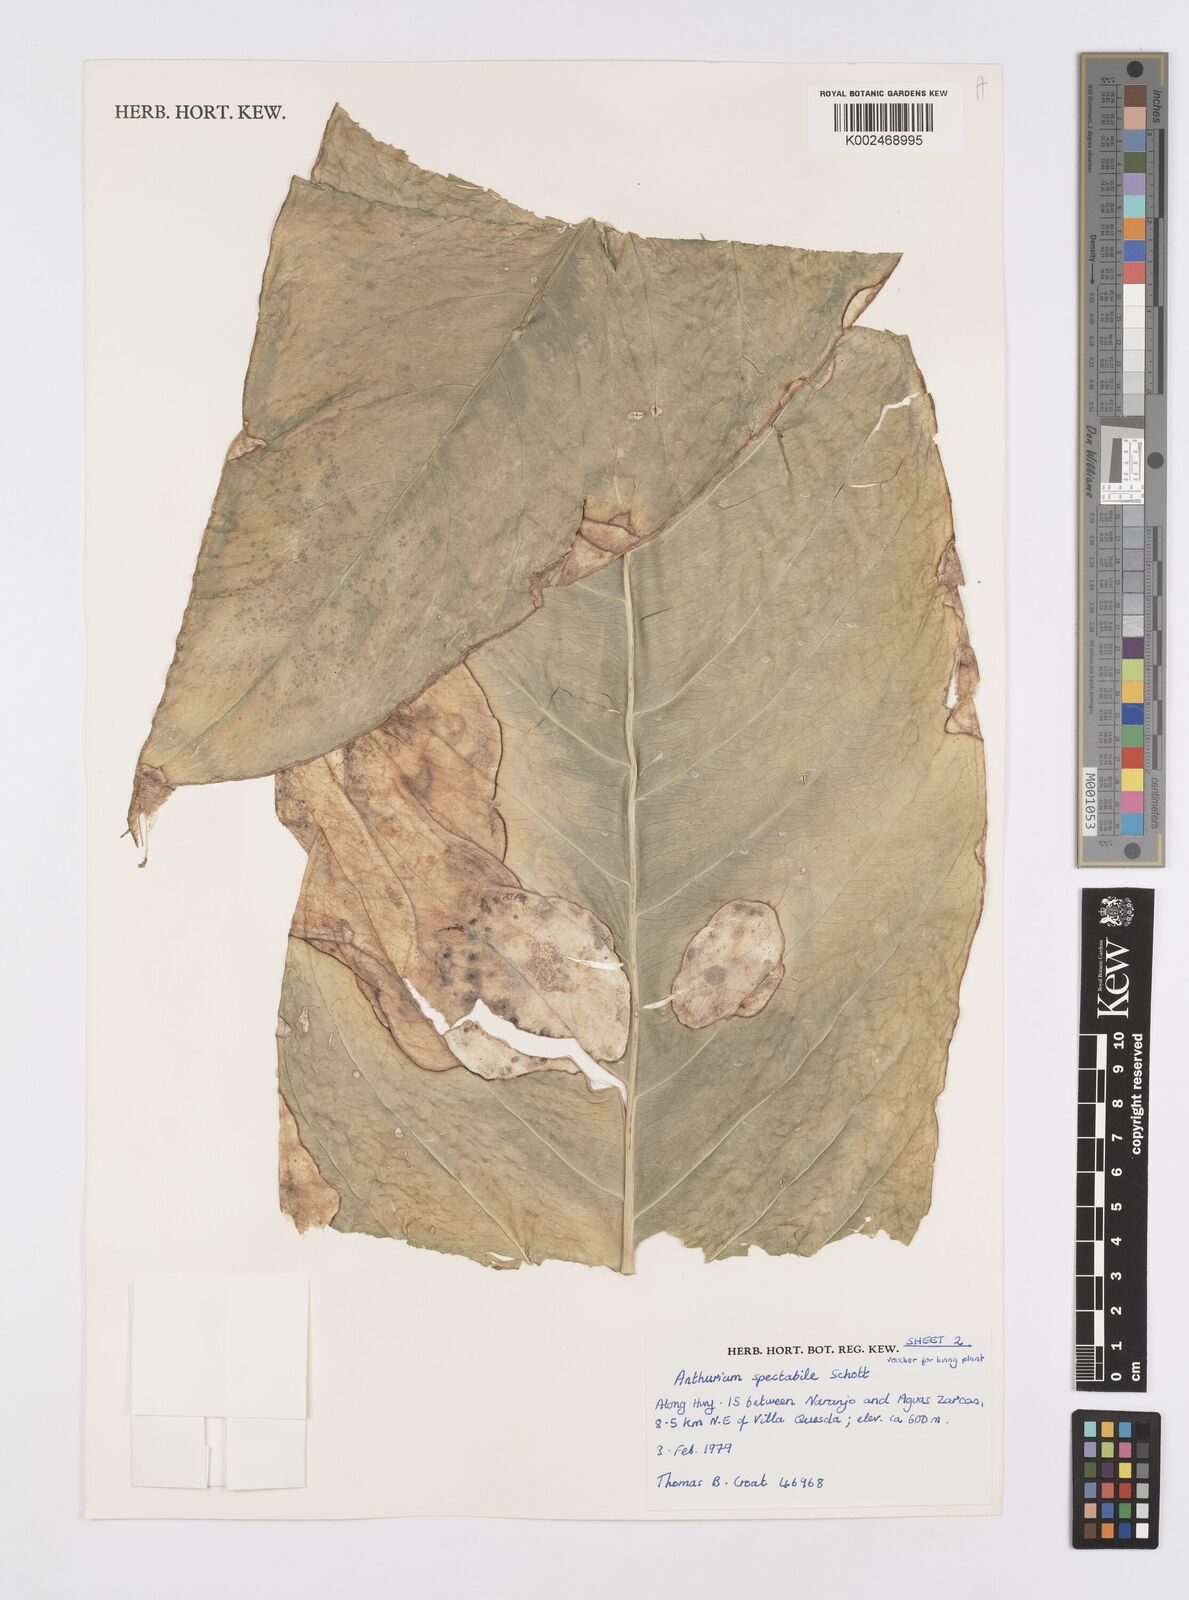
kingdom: Plantae
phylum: Tracheophyta
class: Liliopsida
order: Alismatales
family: Araceae
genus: Anthurium
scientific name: Anthurium spectabile
